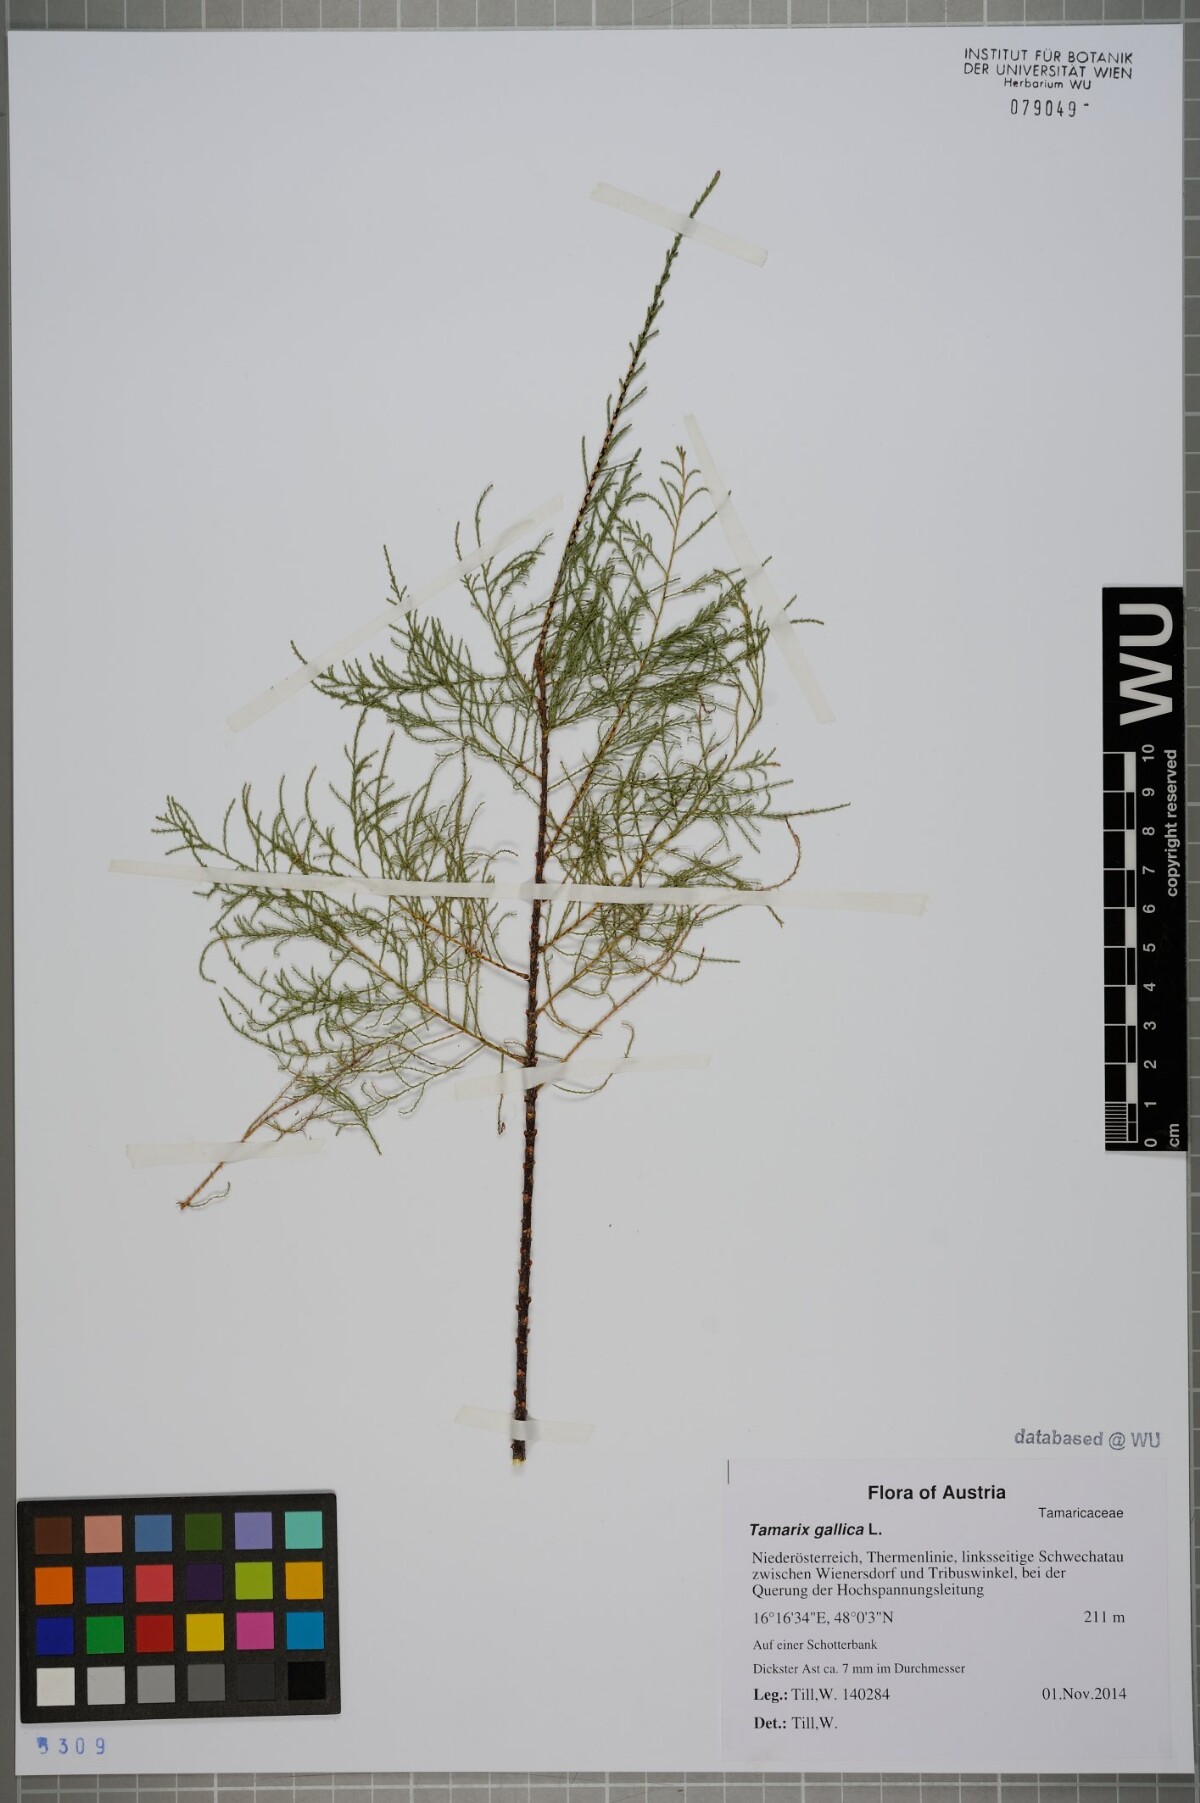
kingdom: Plantae
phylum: Tracheophyta
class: Magnoliopsida
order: Caryophyllales
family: Tamaricaceae
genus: Tamarix
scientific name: Tamarix parviflora
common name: Smallflower tamarisk
